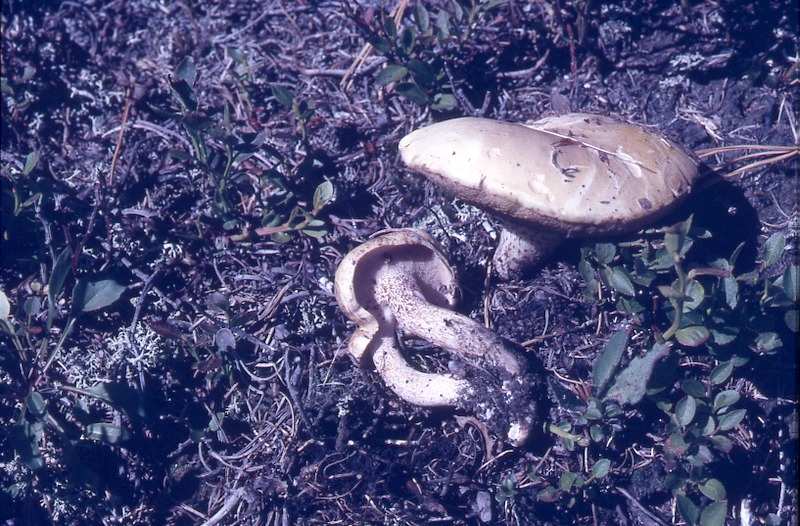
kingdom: Fungi
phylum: Basidiomycota
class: Agaricomycetes
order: Boletales
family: Suillaceae
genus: Suillus
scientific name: Suillus placidus
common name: Slippery white bolete
